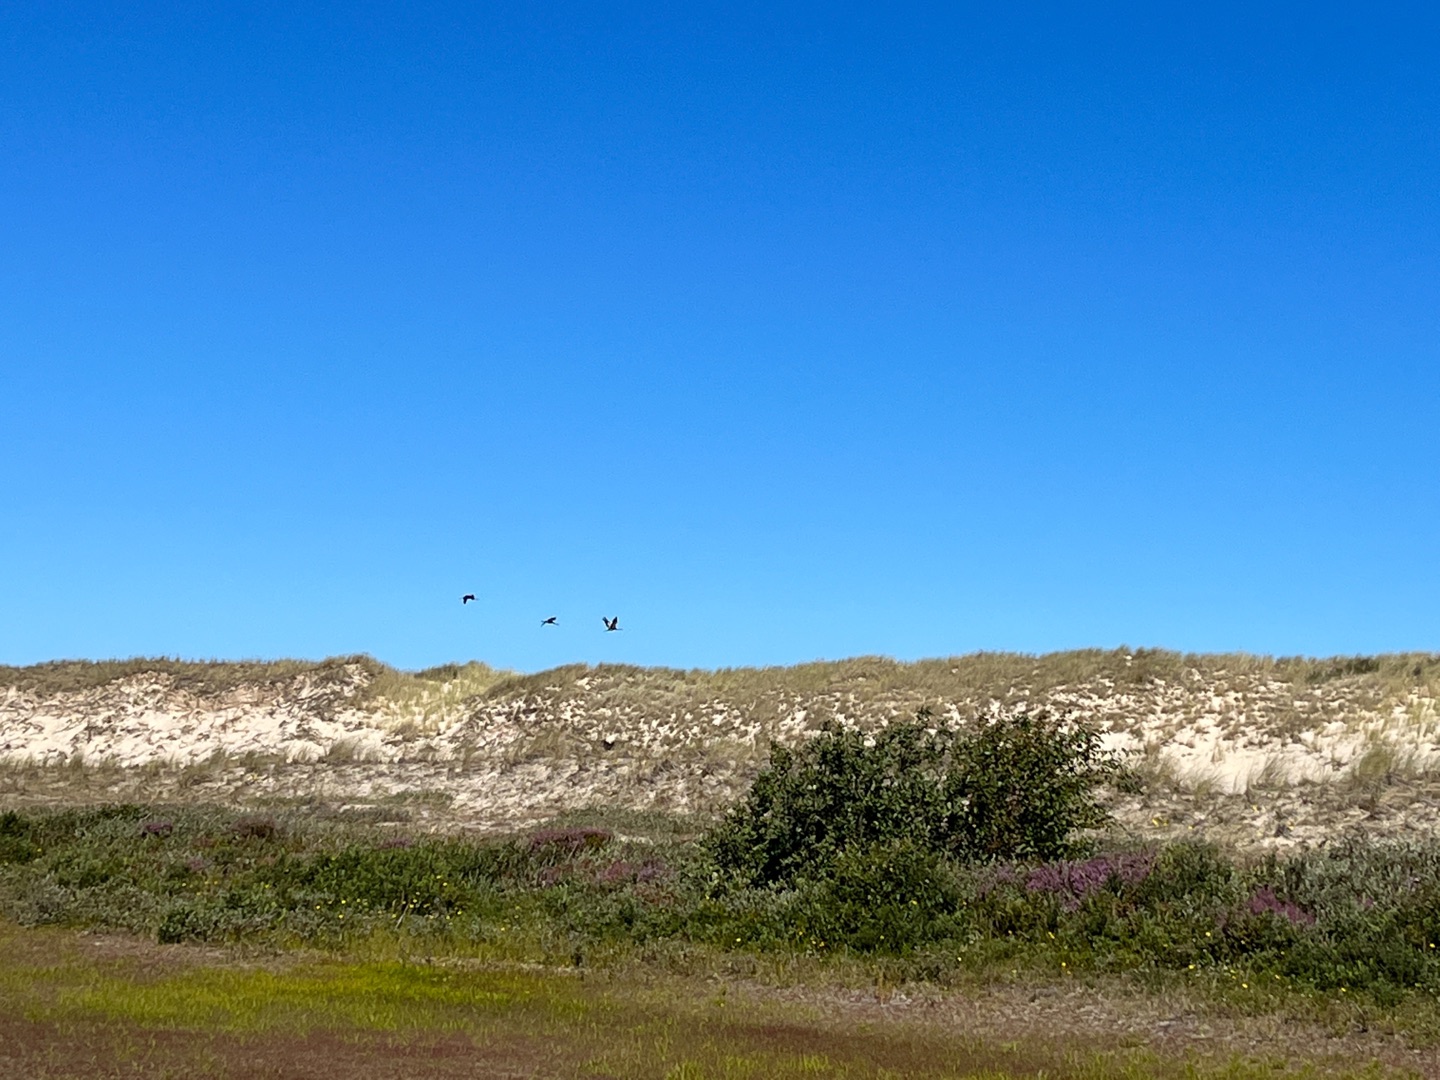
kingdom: Animalia
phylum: Chordata
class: Aves
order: Gruiformes
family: Gruidae
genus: Grus
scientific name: Grus grus
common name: Trane
